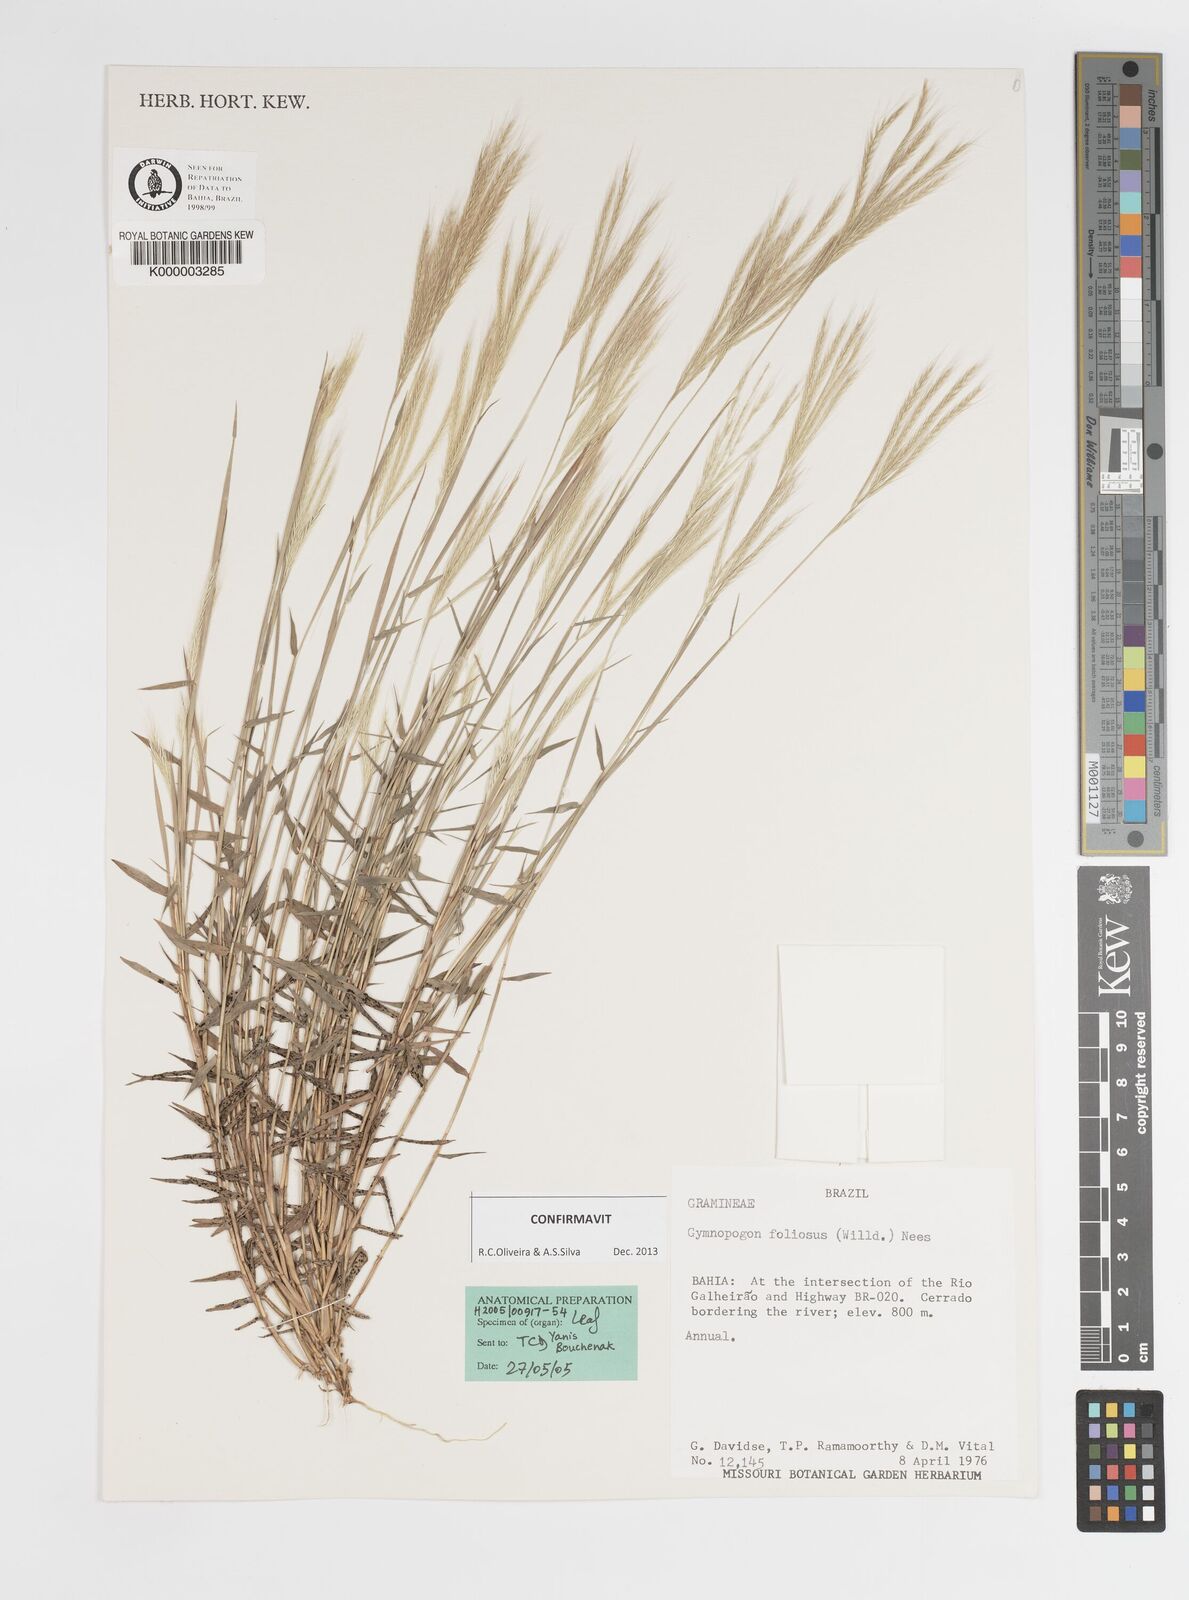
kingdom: Plantae
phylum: Tracheophyta
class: Liliopsida
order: Poales
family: Poaceae
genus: Gymnopogon
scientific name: Gymnopogon foliosus
